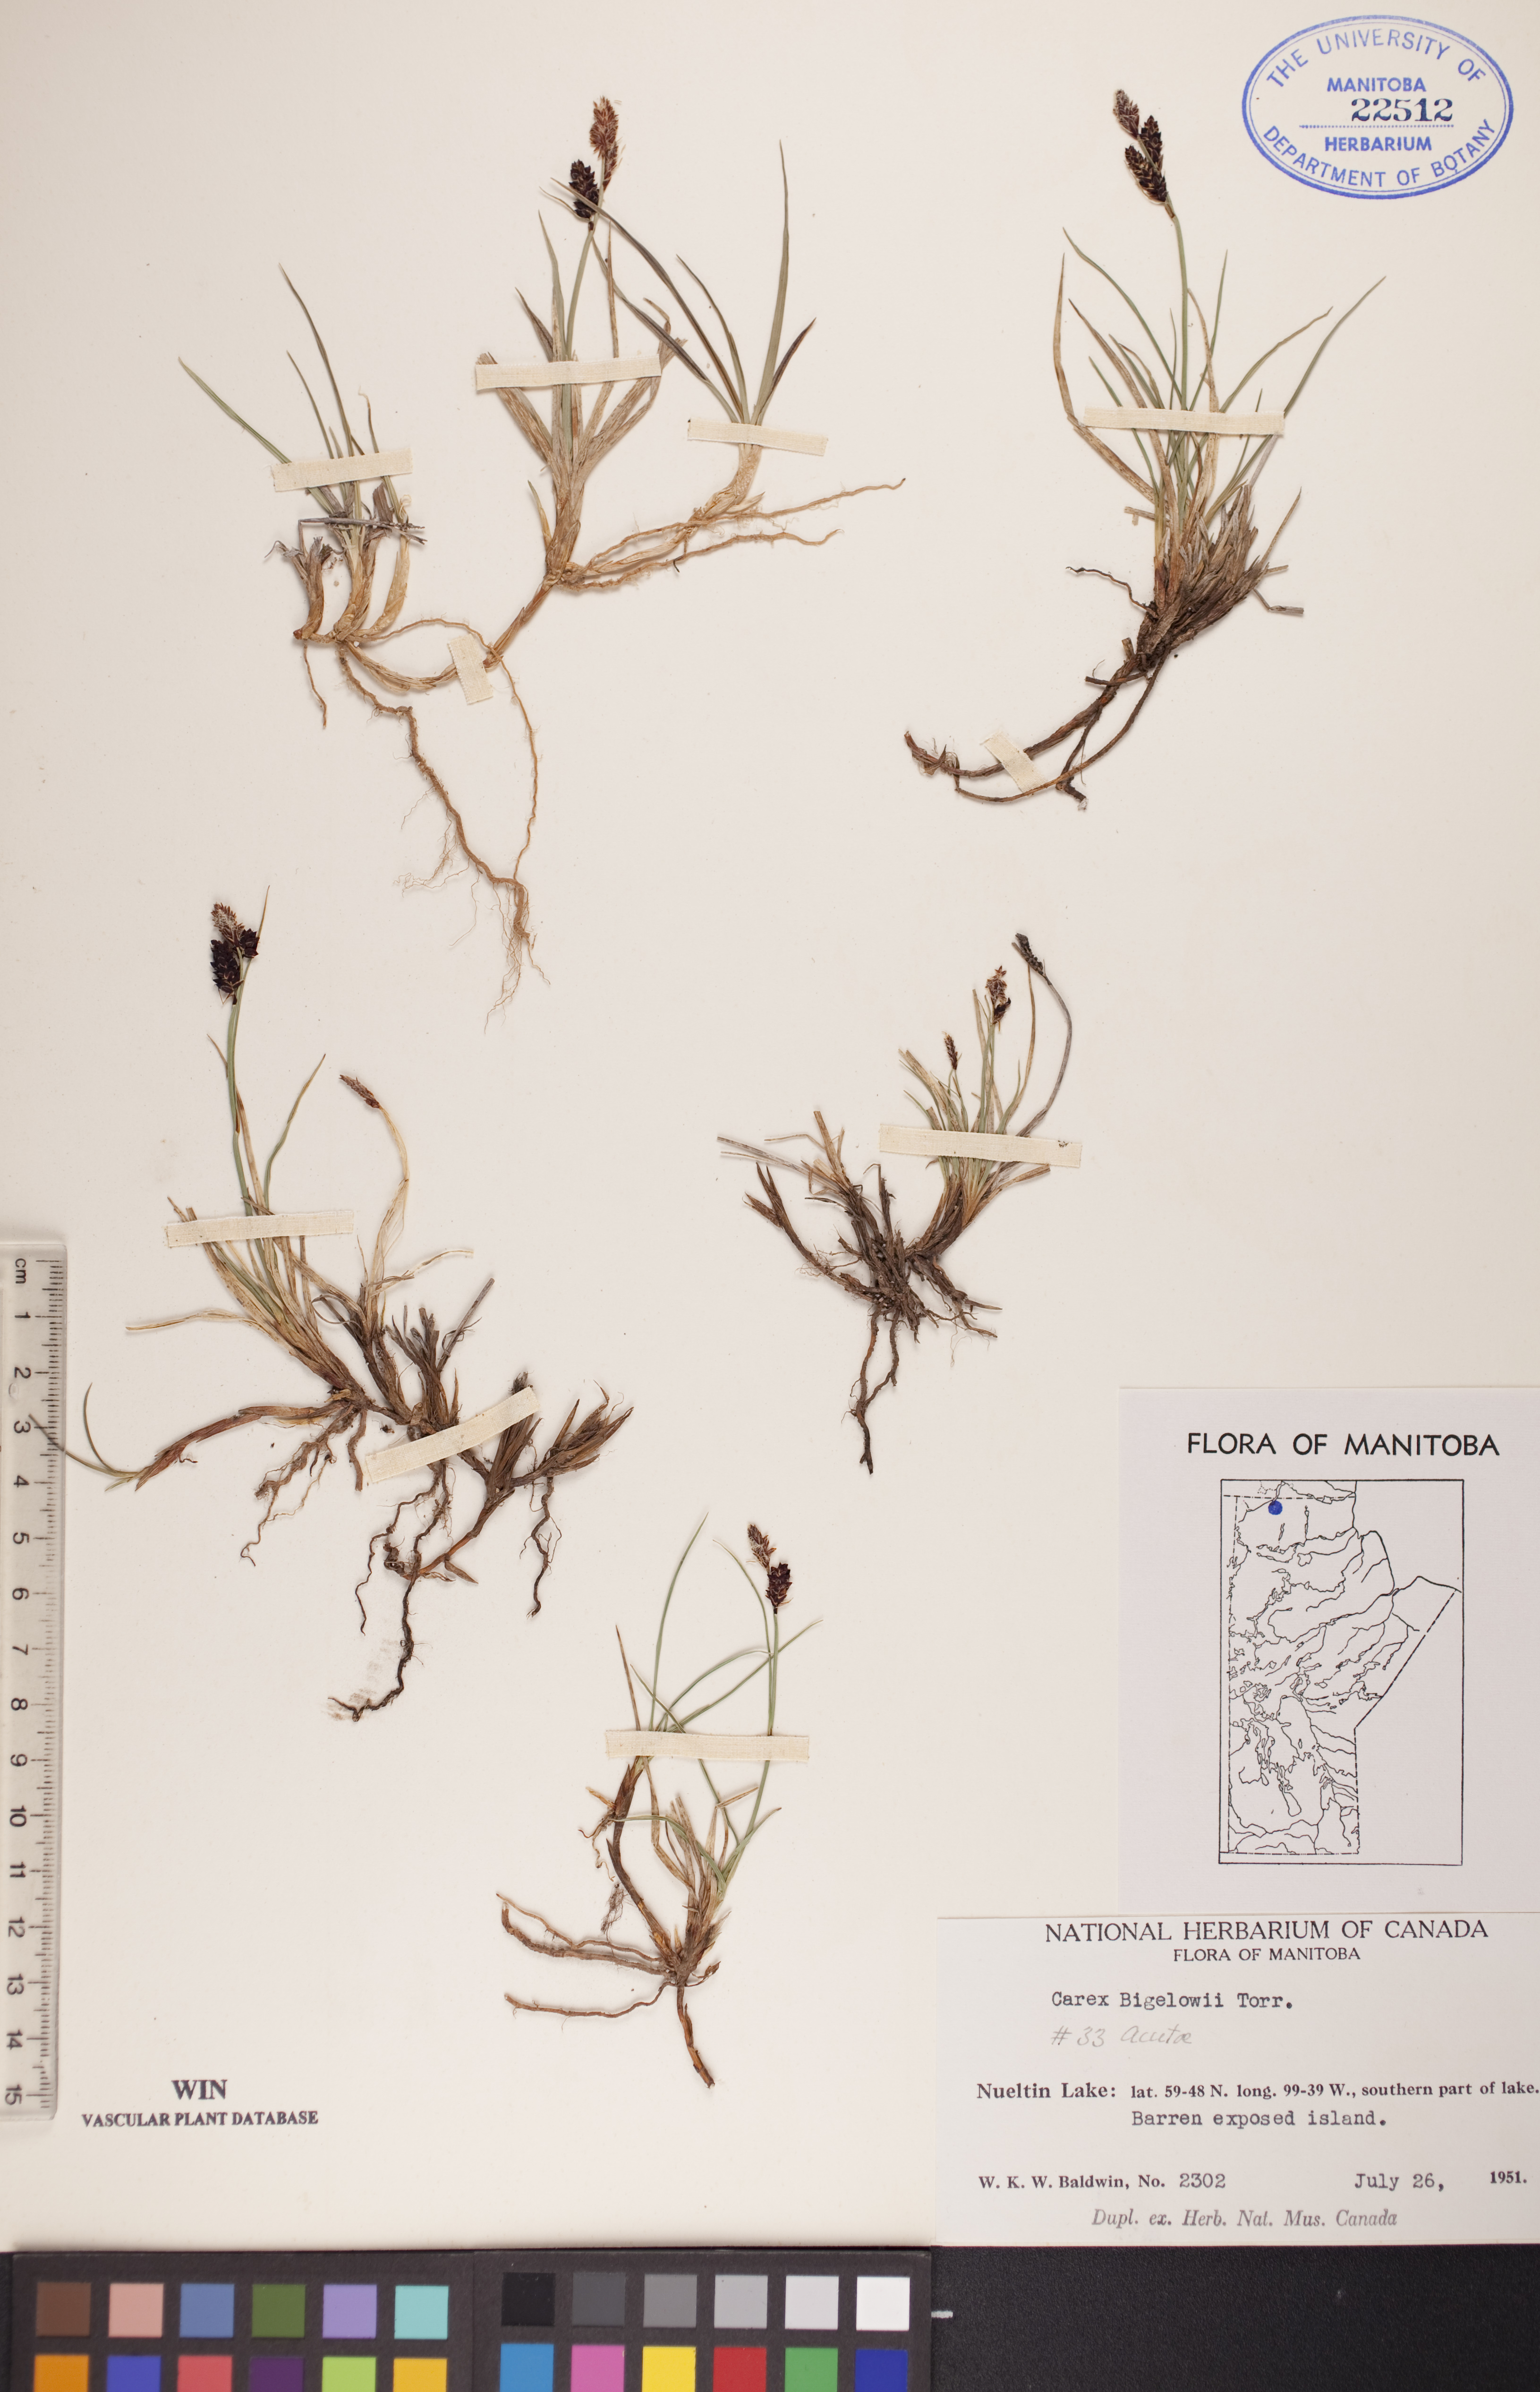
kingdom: Plantae
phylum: Tracheophyta
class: Liliopsida
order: Poales
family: Cyperaceae
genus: Carex
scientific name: Carex bigelowii
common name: Stiff sedge
